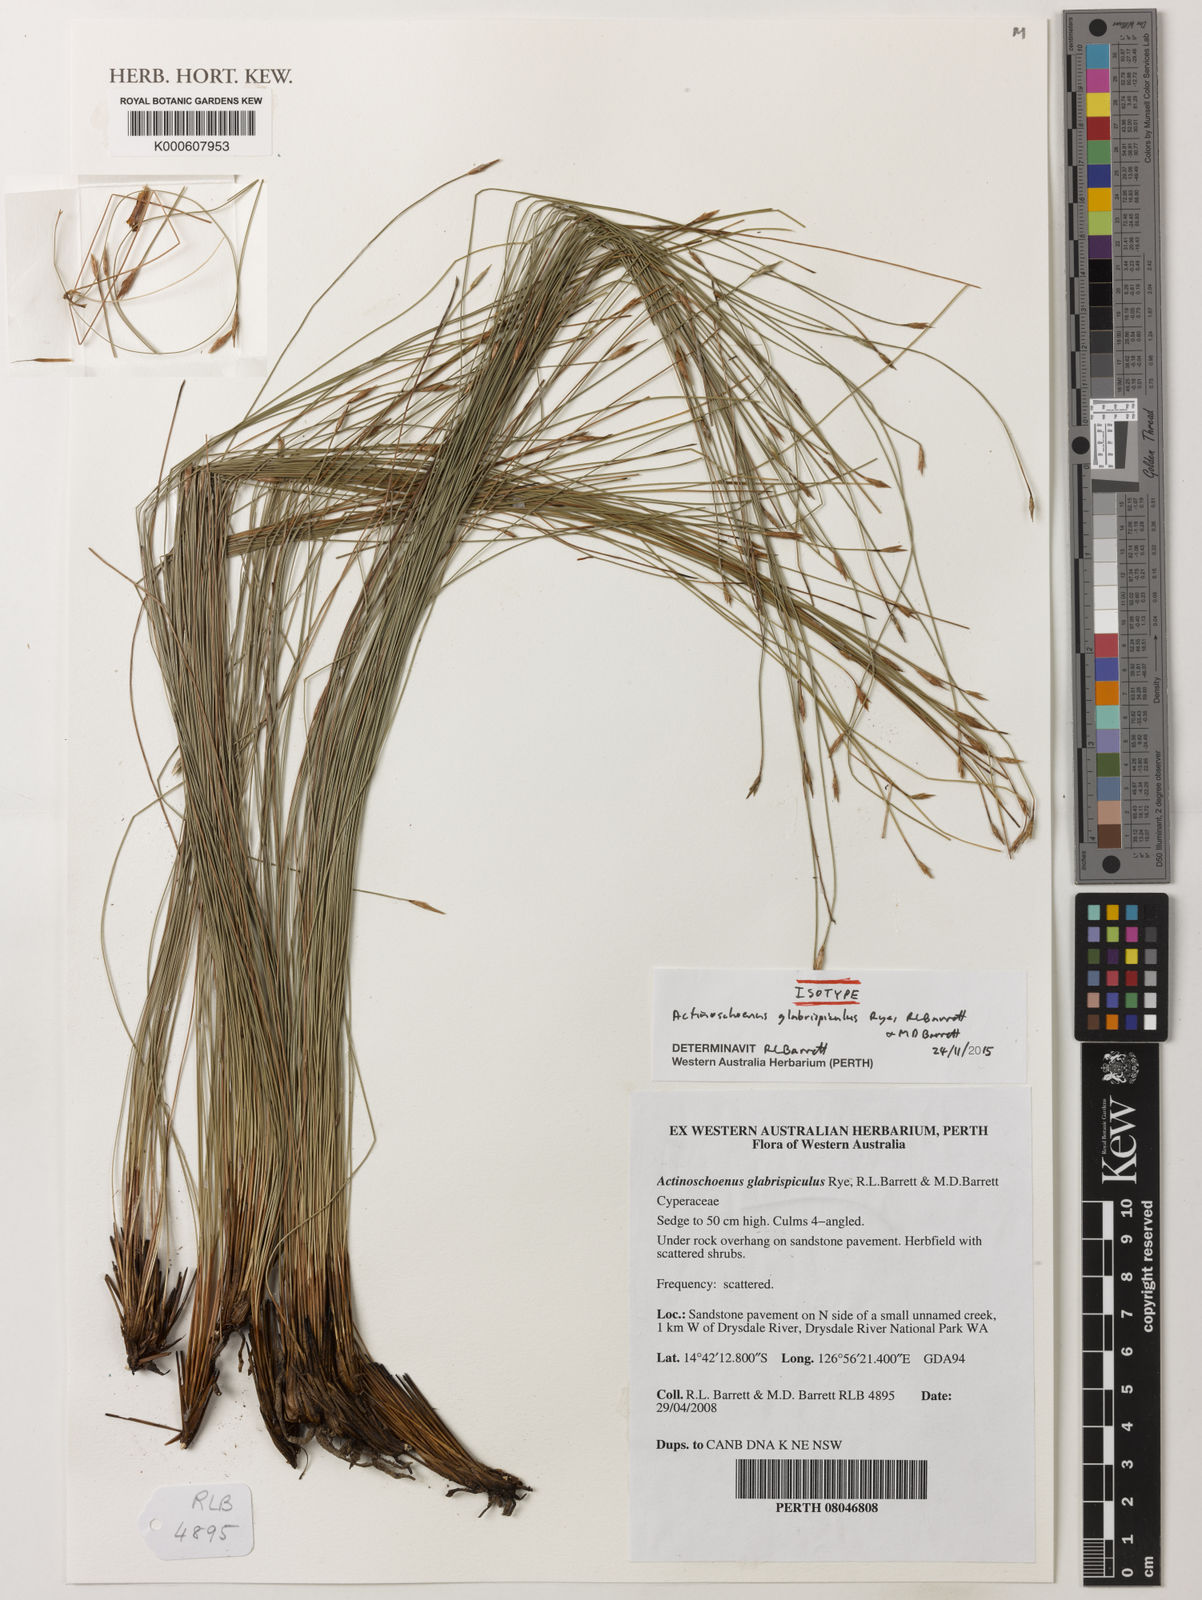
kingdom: Plantae
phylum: Tracheophyta
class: Liliopsida
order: Poales
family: Cyperaceae
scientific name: Cyperaceae
